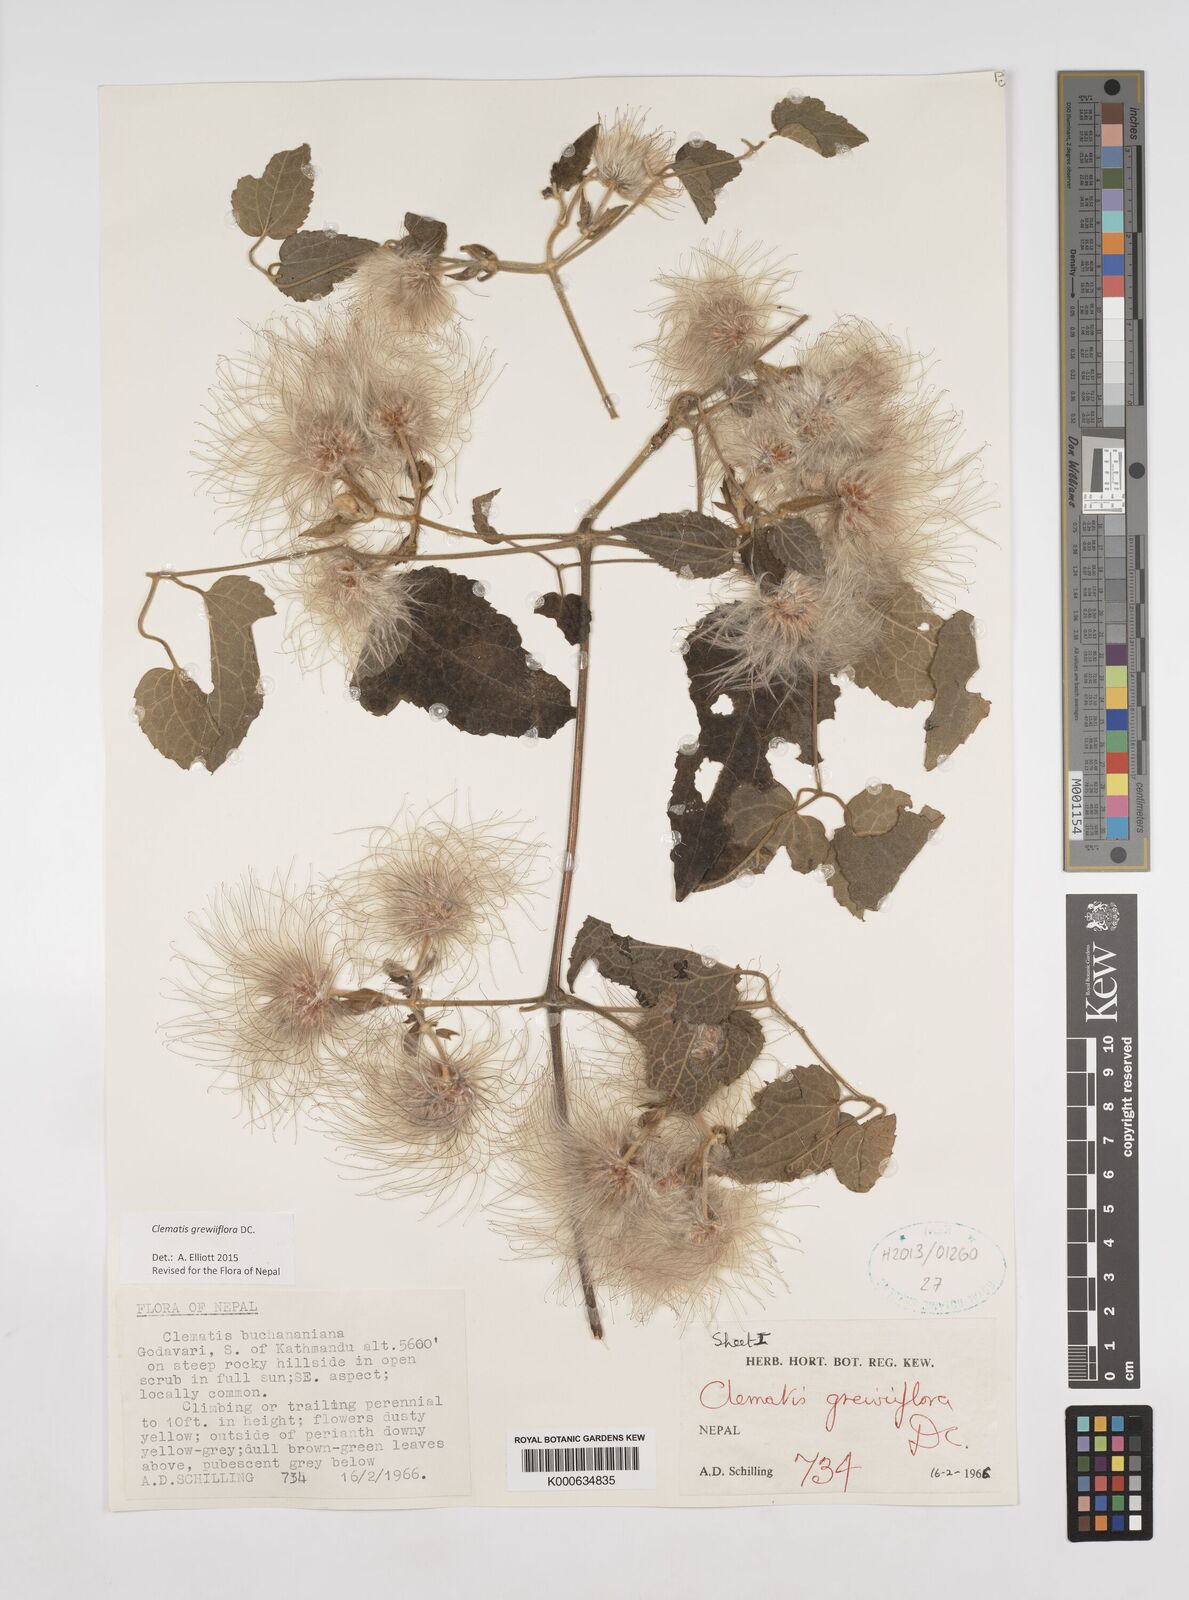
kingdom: Plantae
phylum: Tracheophyta
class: Magnoliopsida
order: Ranunculales
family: Ranunculaceae
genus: Clematis
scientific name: Clematis grewiiflora
